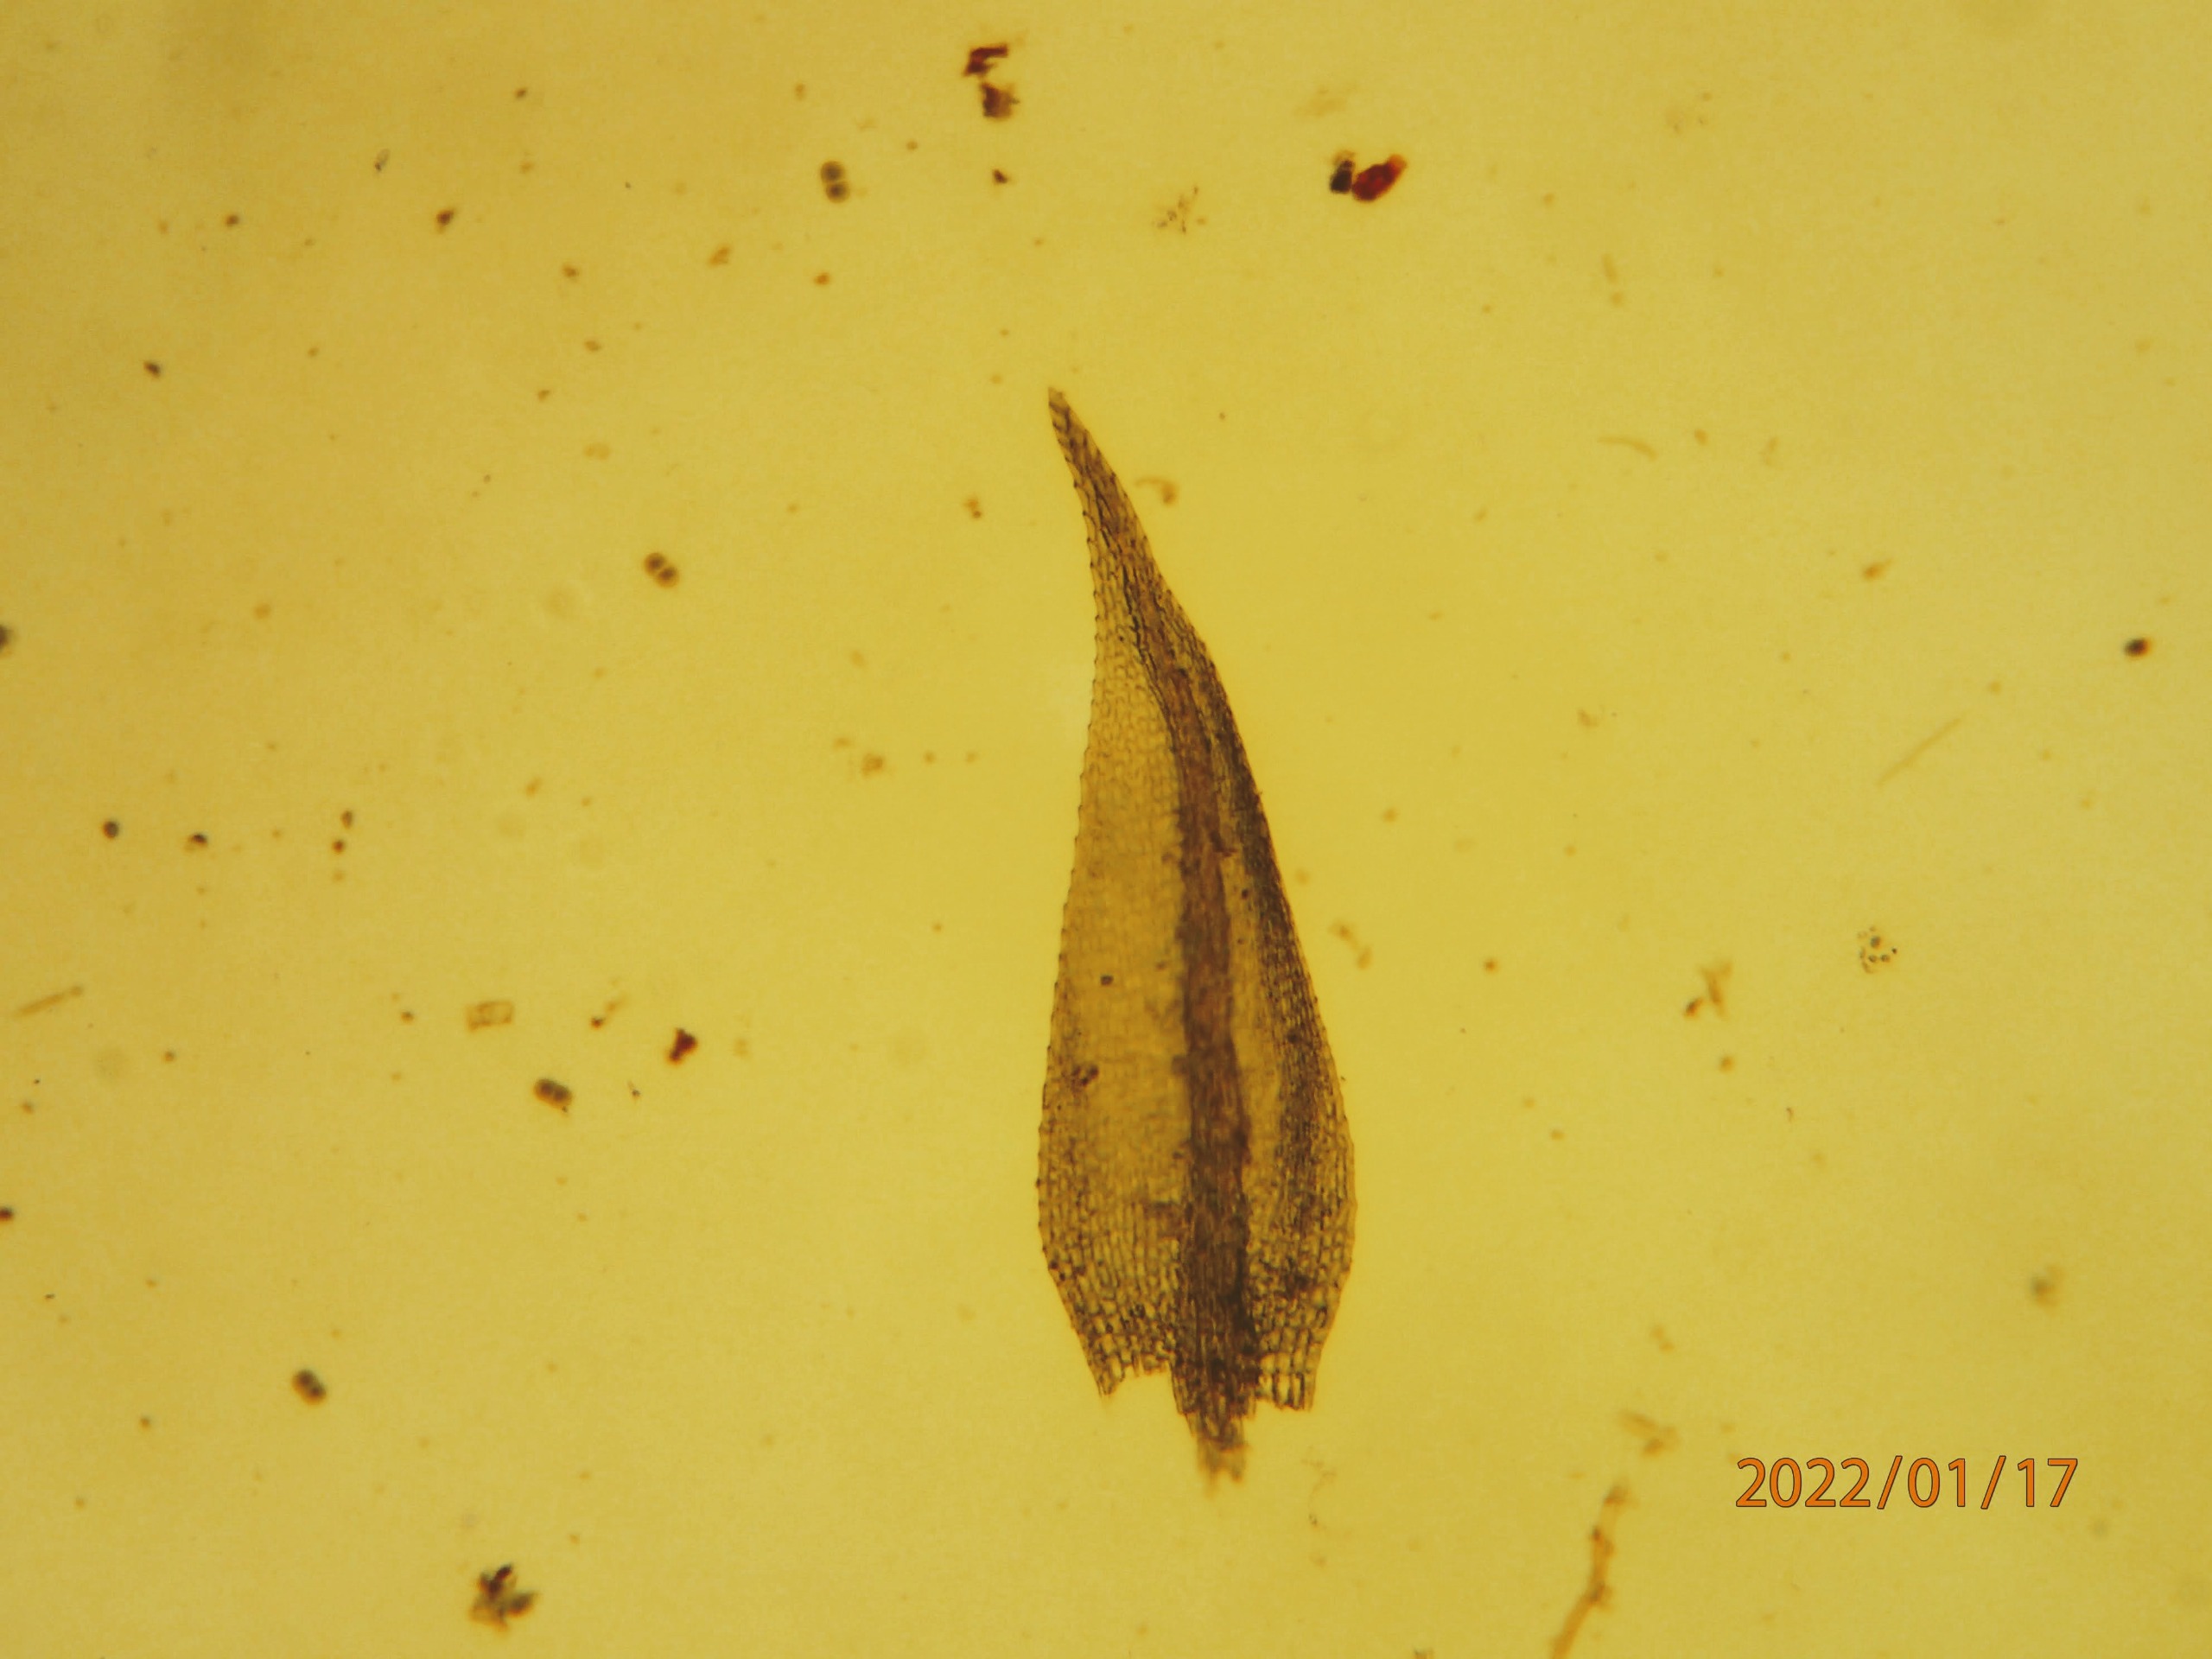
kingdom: Plantae
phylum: Bryophyta
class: Bryopsida
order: Hypnales
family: Amblystegiaceae
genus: Hygroamblystegium
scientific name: Hygroamblystegium tenax
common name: Stiv vandkrybmos
